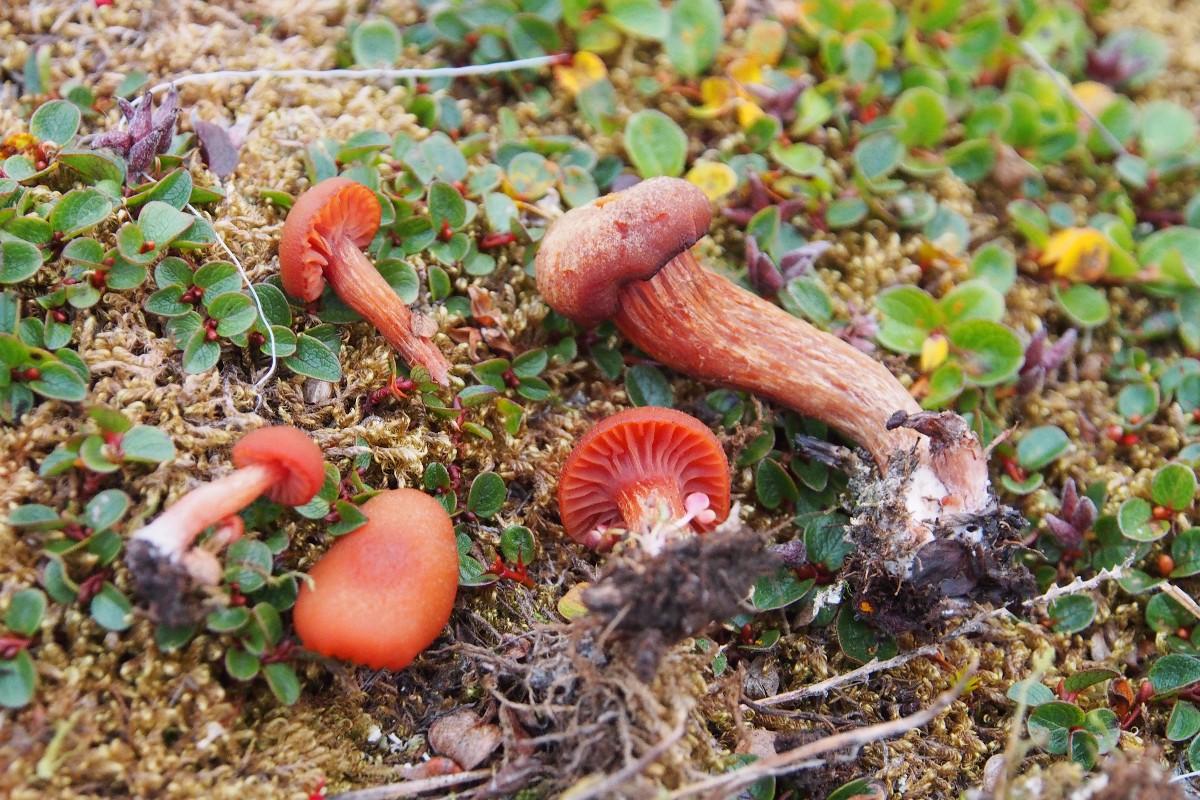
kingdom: Fungi
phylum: Basidiomycota
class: Agaricomycetes
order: Agaricales
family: Hydnangiaceae
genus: Laccaria
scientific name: Laccaria
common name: ametysthat
